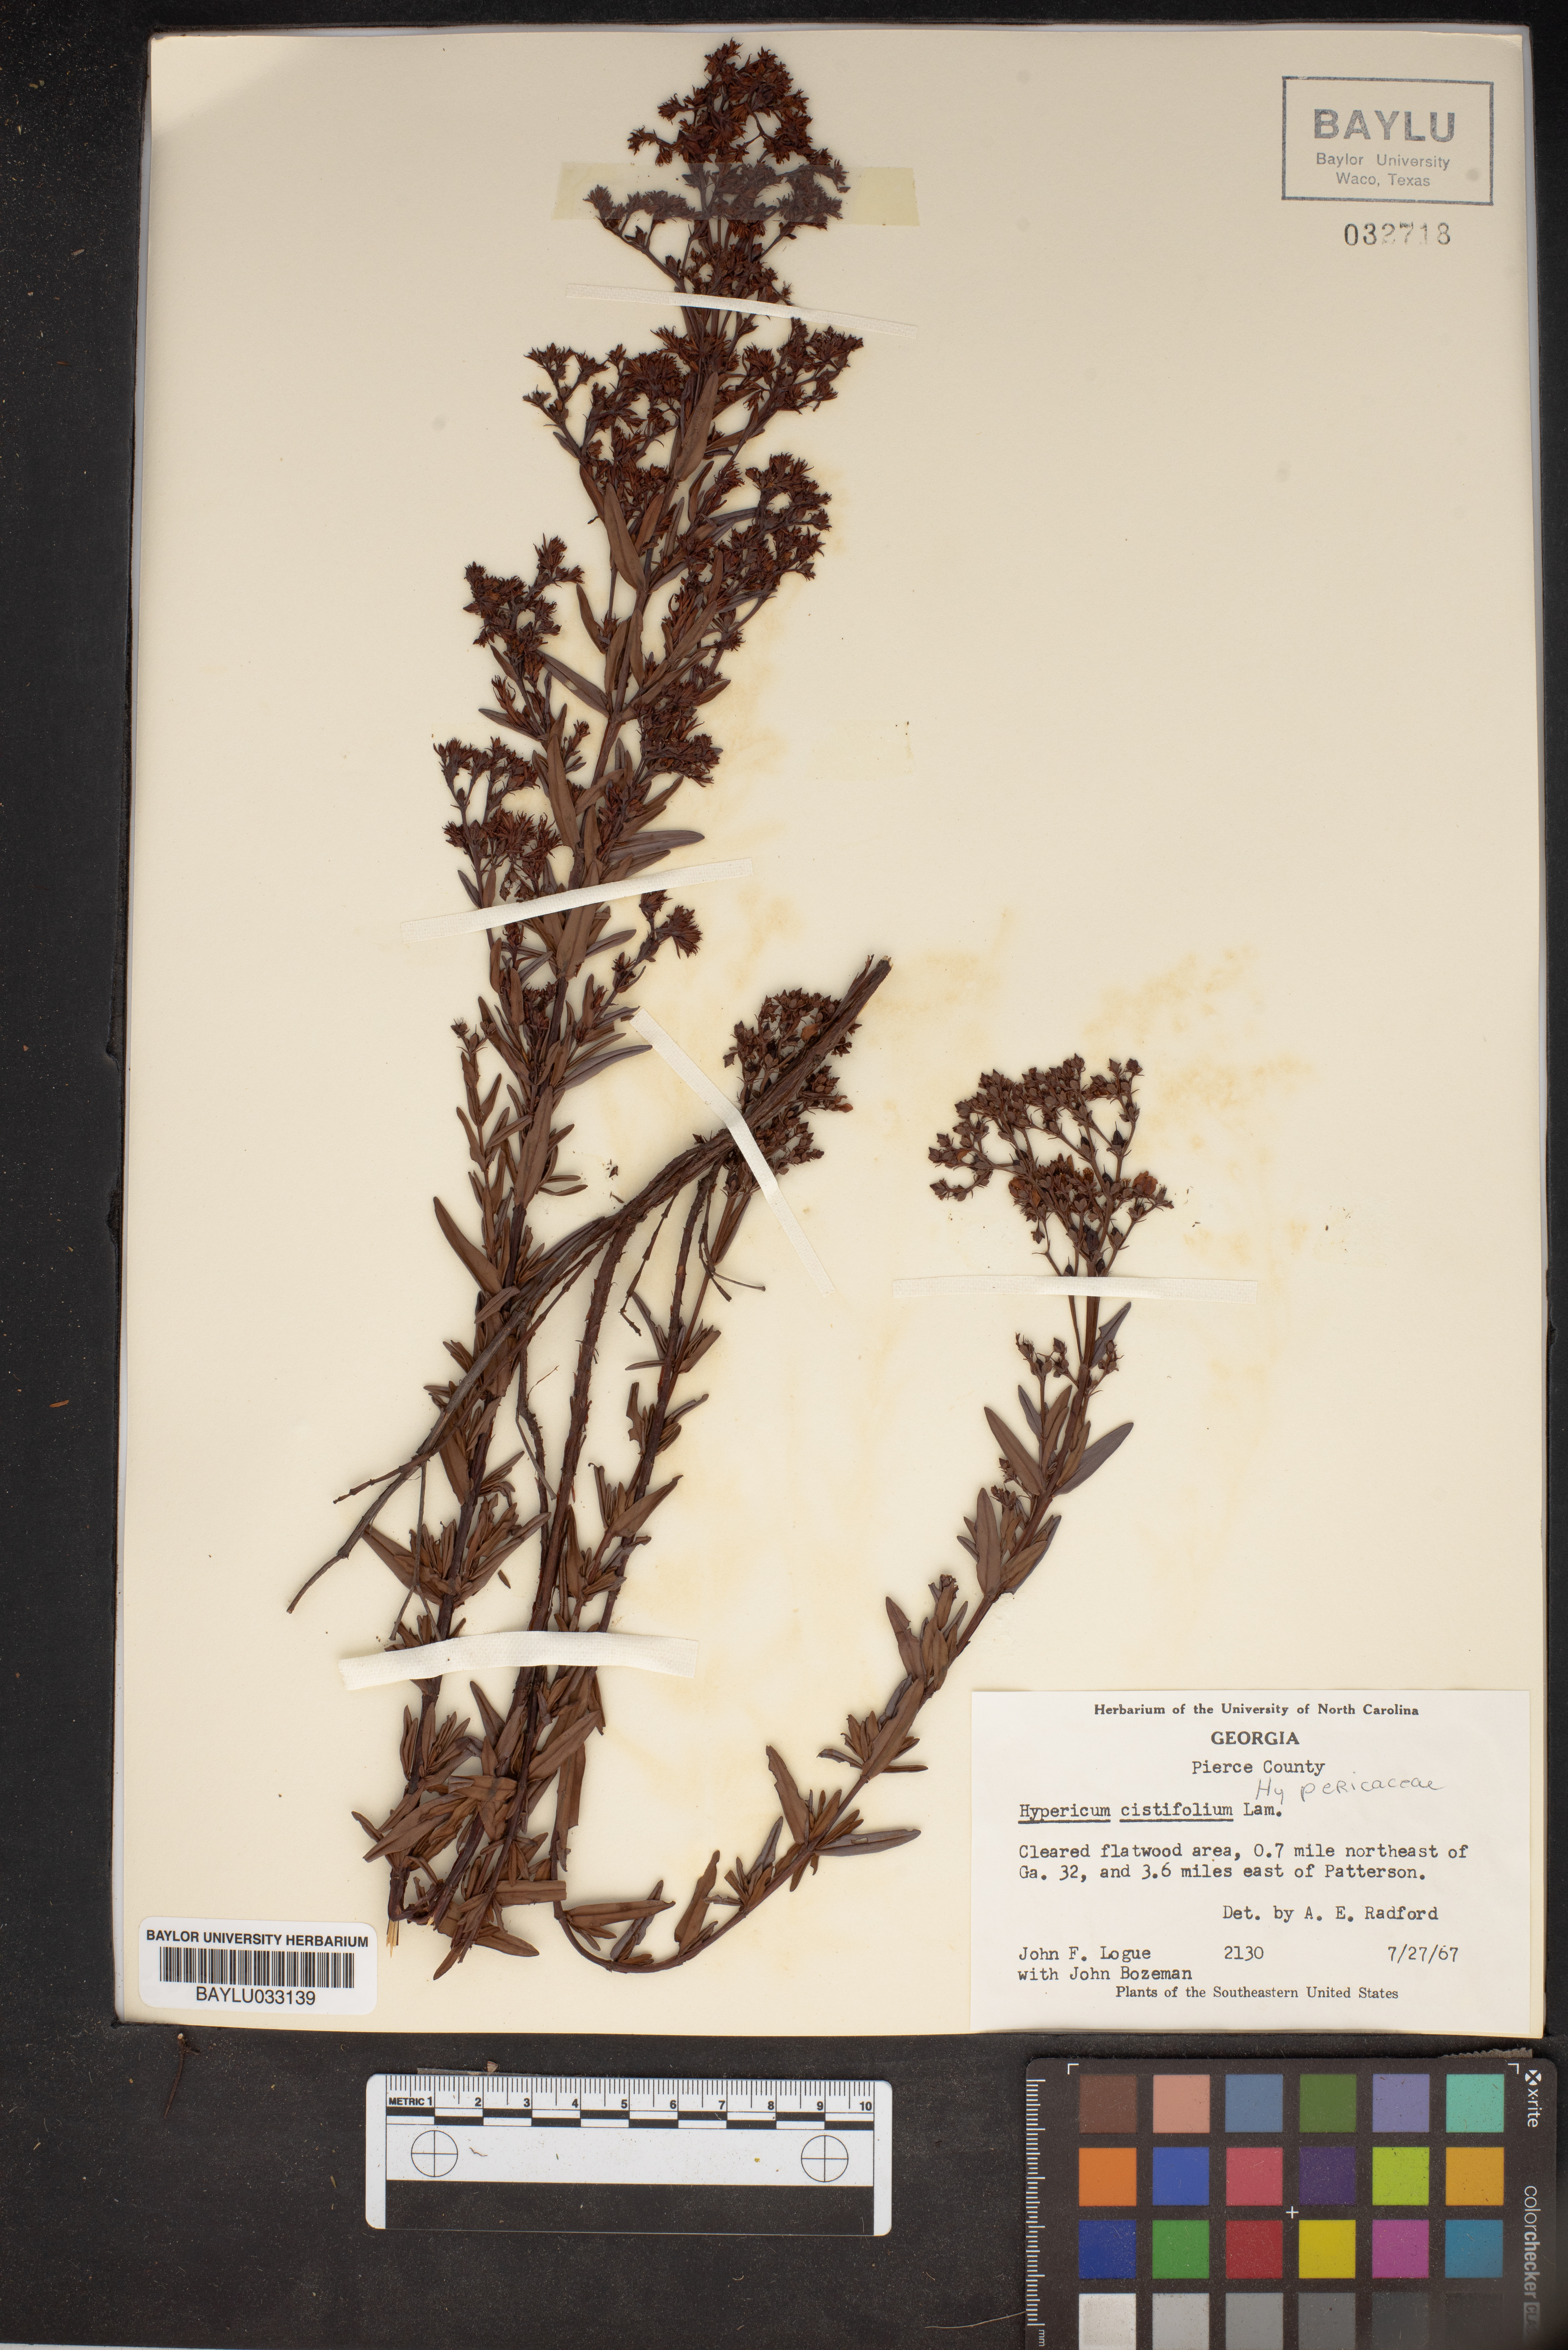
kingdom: Plantae
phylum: Tracheophyta
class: Magnoliopsida
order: Malpighiales
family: Hypericaceae
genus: Hypericum
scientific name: Hypericum cistifolium
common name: Round-pod st. john's-wort
